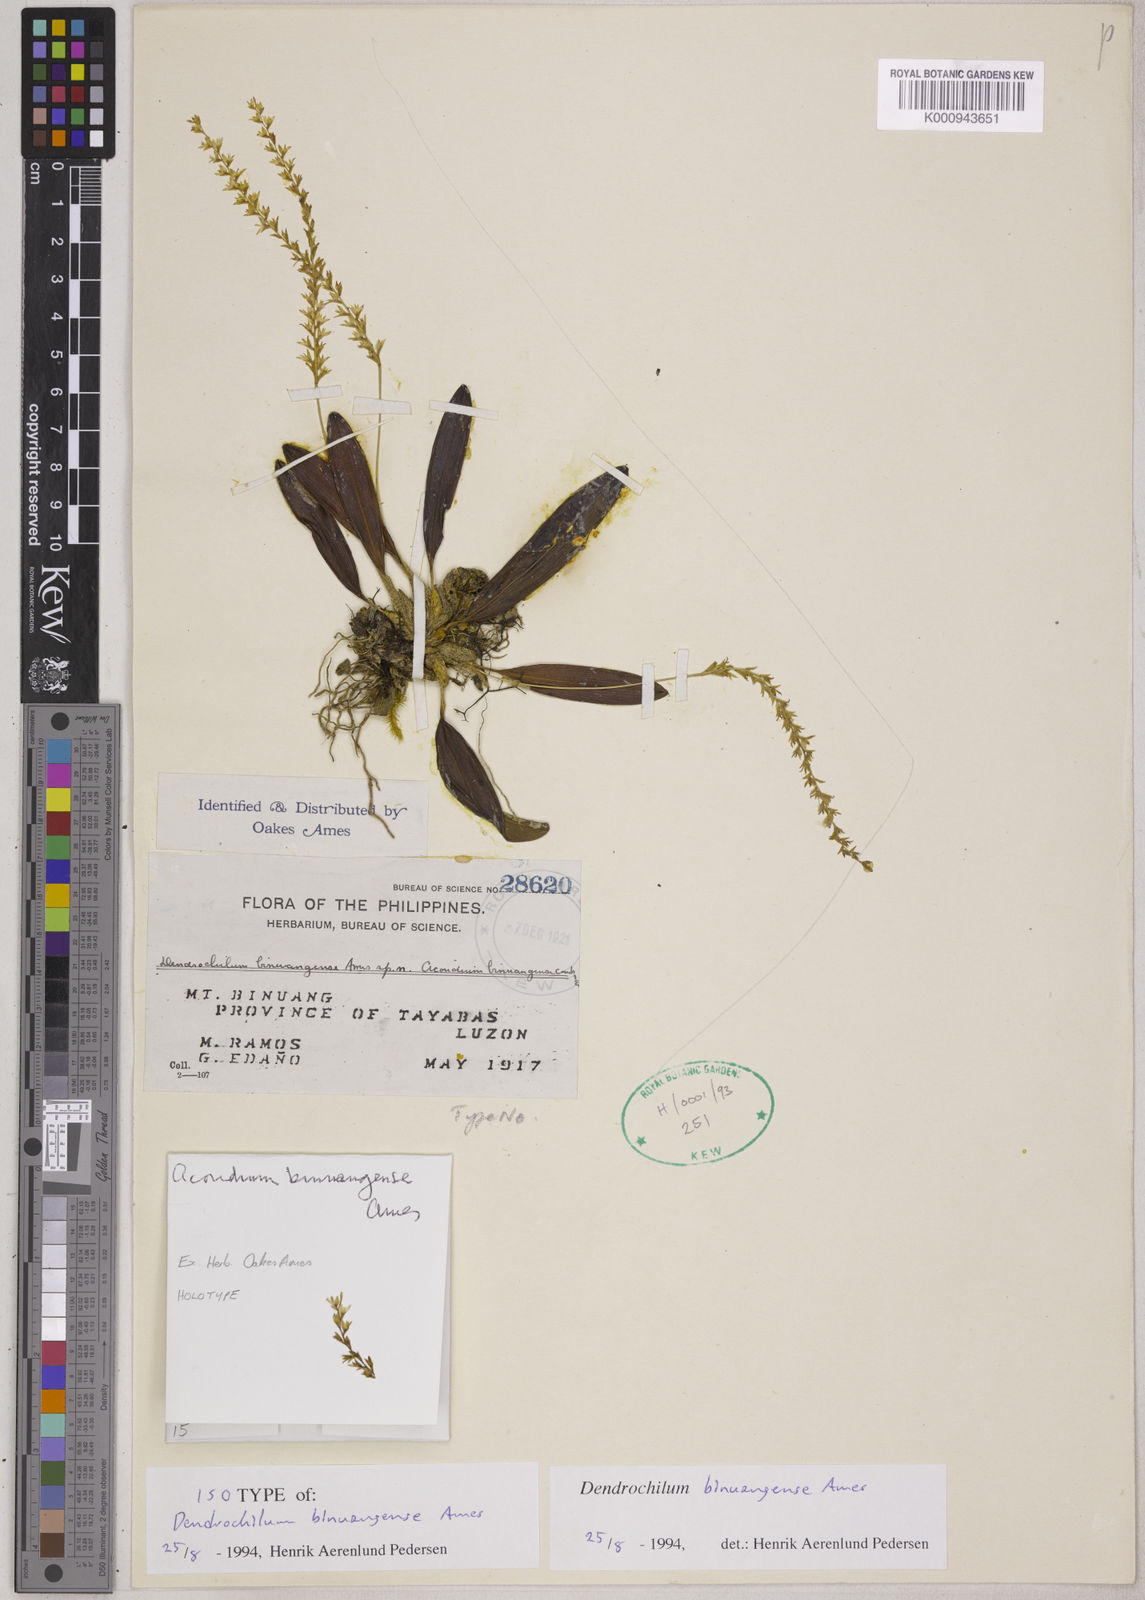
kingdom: Plantae
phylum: Tracheophyta
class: Liliopsida
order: Asparagales
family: Orchidaceae
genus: Coelogyne
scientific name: Coelogyne binuangensis
